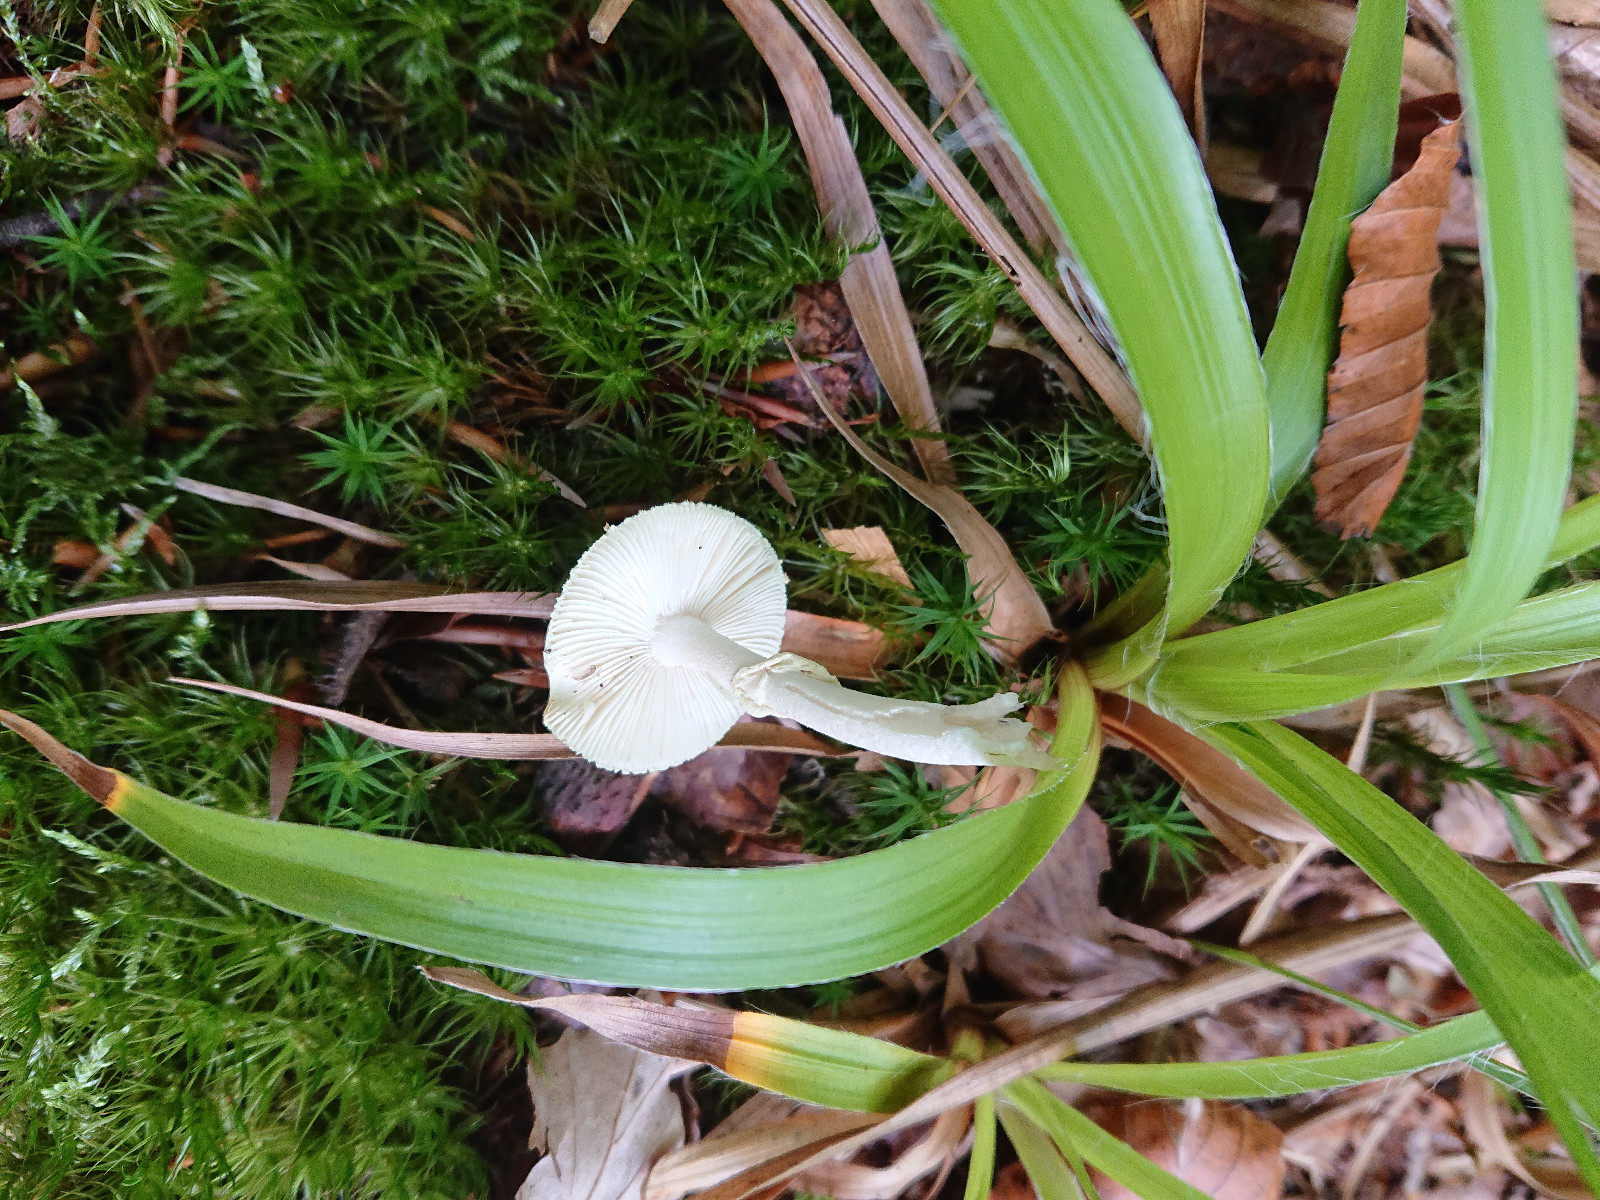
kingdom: Fungi
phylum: Basidiomycota
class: Agaricomycetes
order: Agaricales
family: Amanitaceae
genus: Amanita
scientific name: Amanita citrina
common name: kugleknoldet fluesvamp
